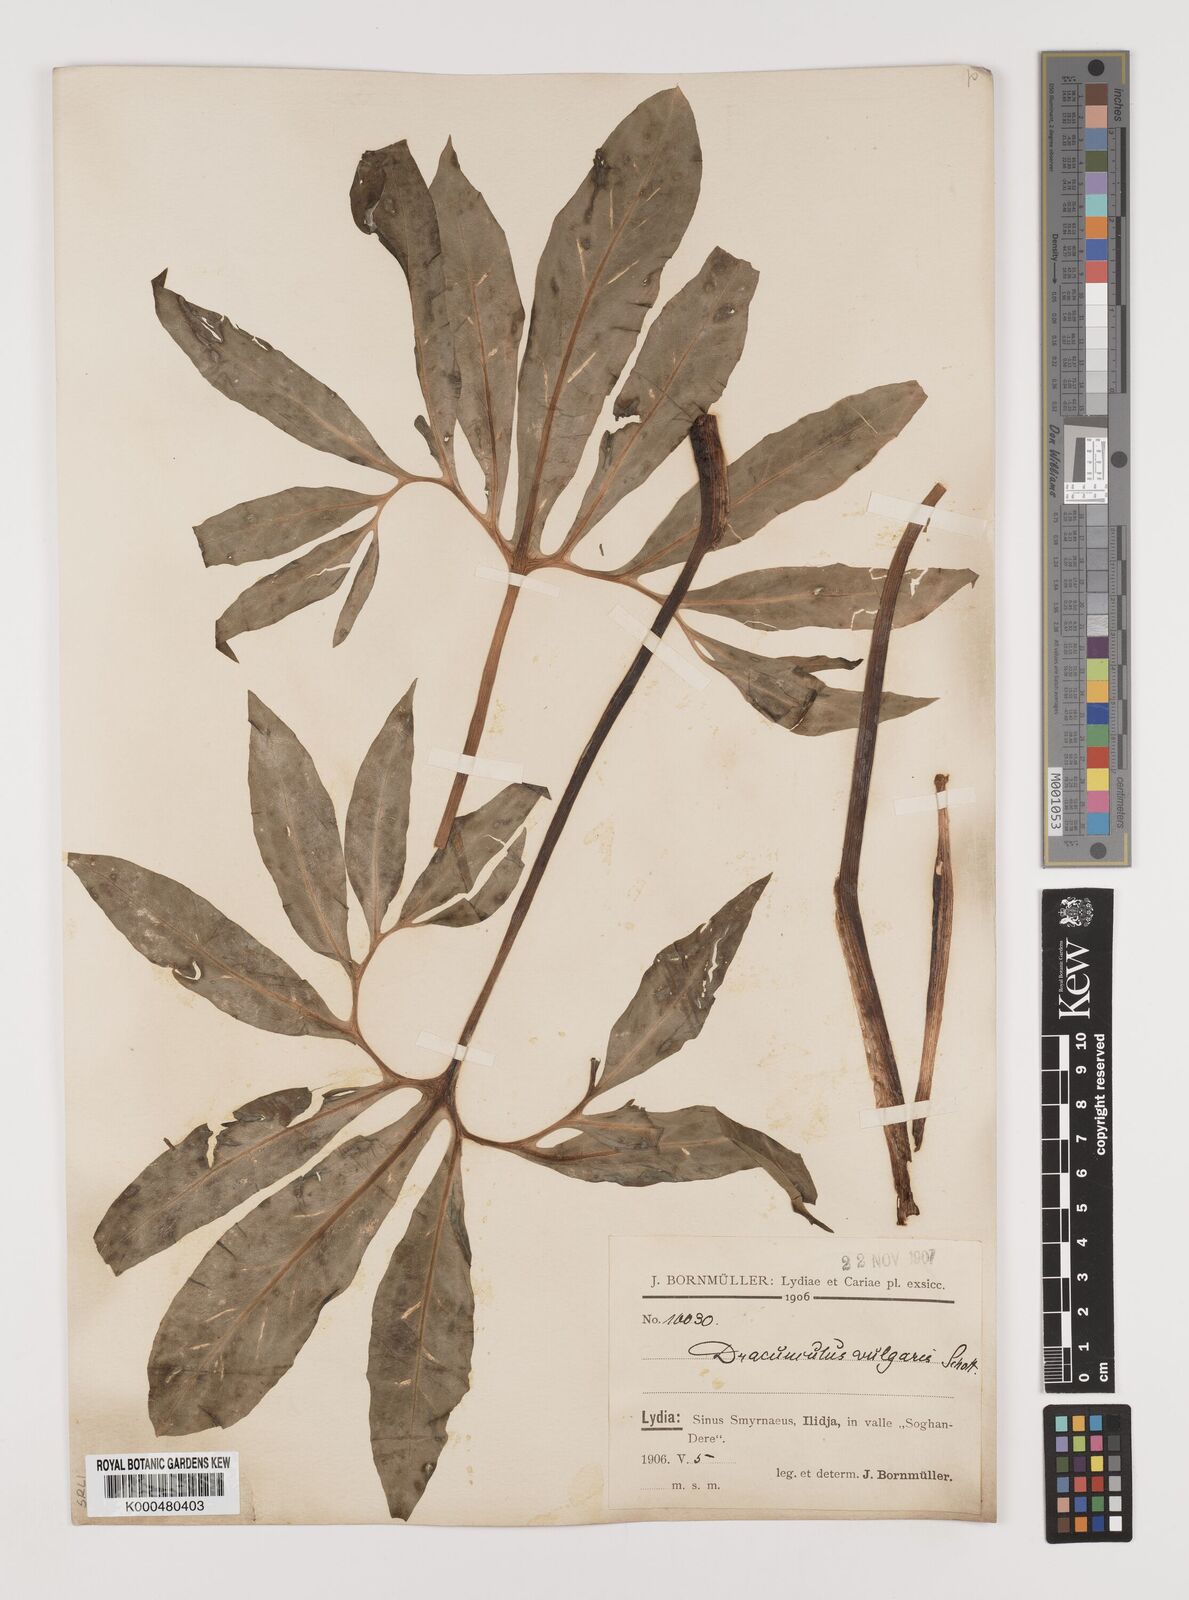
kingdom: Plantae
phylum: Tracheophyta
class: Liliopsida
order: Alismatales
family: Araceae
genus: Dracunculus
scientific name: Dracunculus vulgaris
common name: Dragon arum
